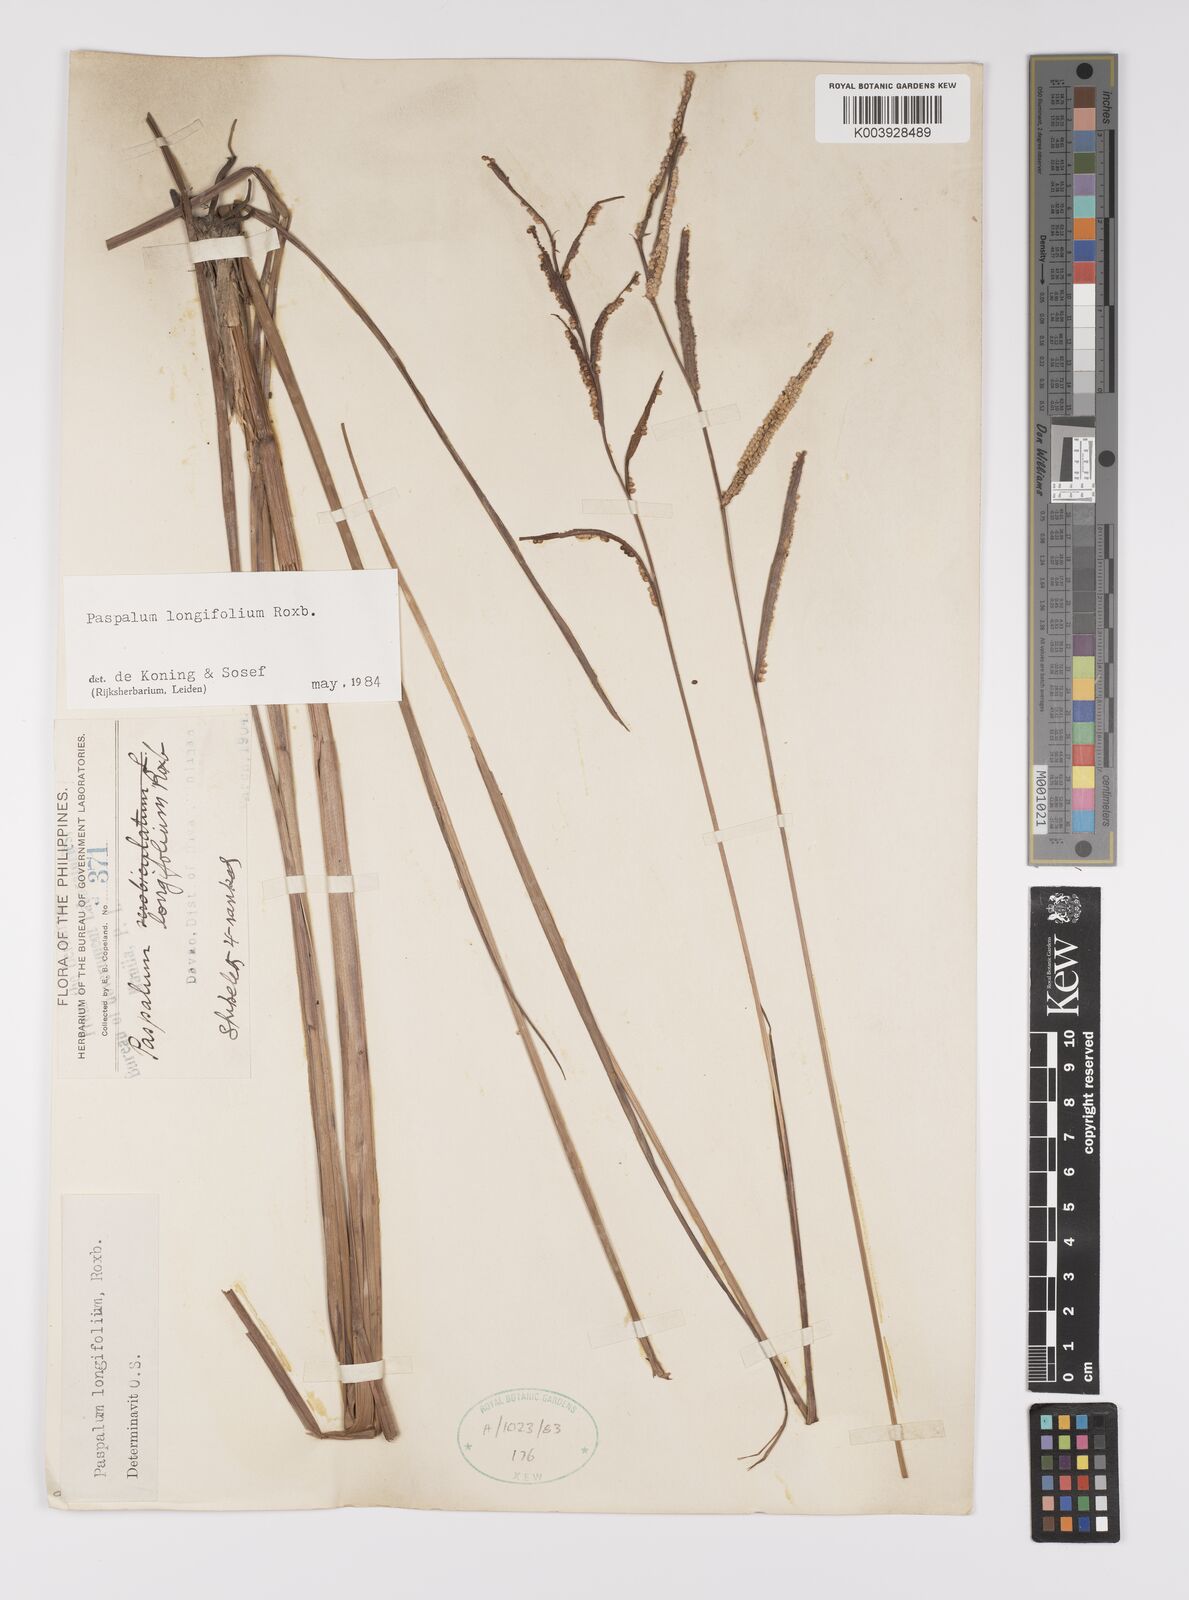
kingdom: Plantae
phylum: Tracheophyta
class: Liliopsida
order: Poales
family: Poaceae
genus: Paspalum
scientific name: Paspalum sumatrense
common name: Long-leaved paspalum
